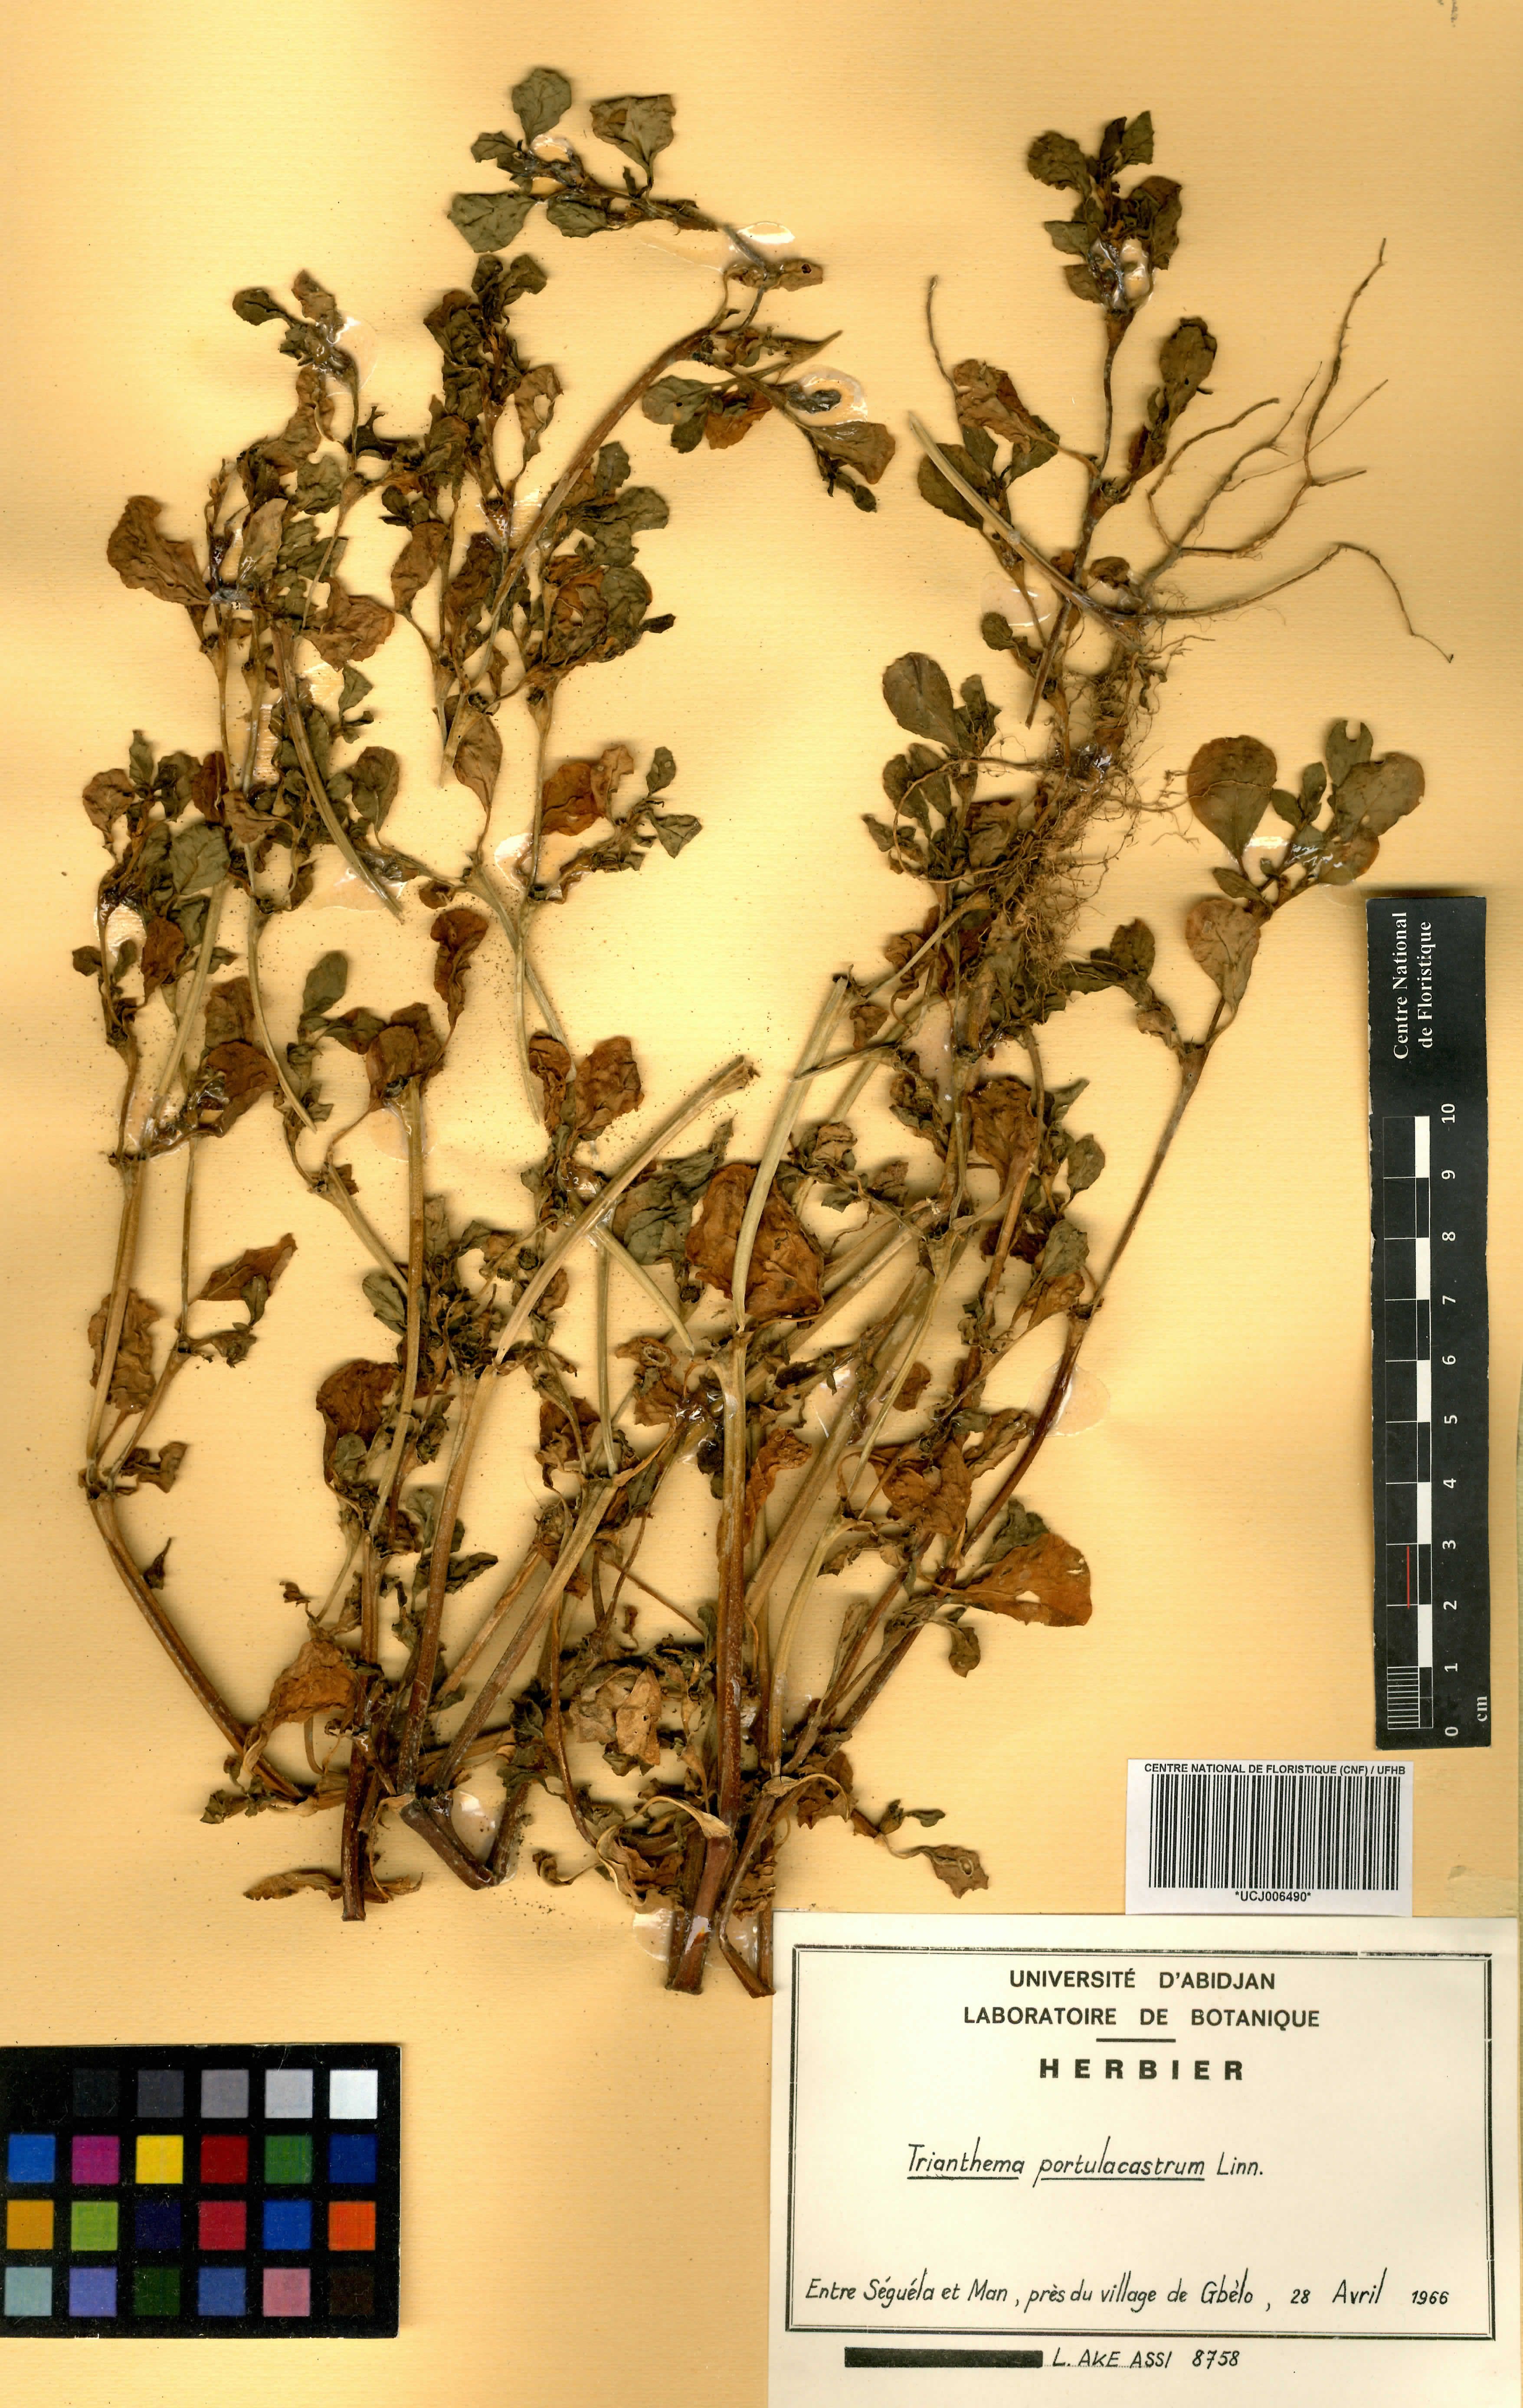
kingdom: Plantae
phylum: Tracheophyta
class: Magnoliopsida
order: Caryophyllales
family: Aizoaceae
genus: Trianthema
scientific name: Trianthema portulacastrum
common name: Desert horsepurslane
